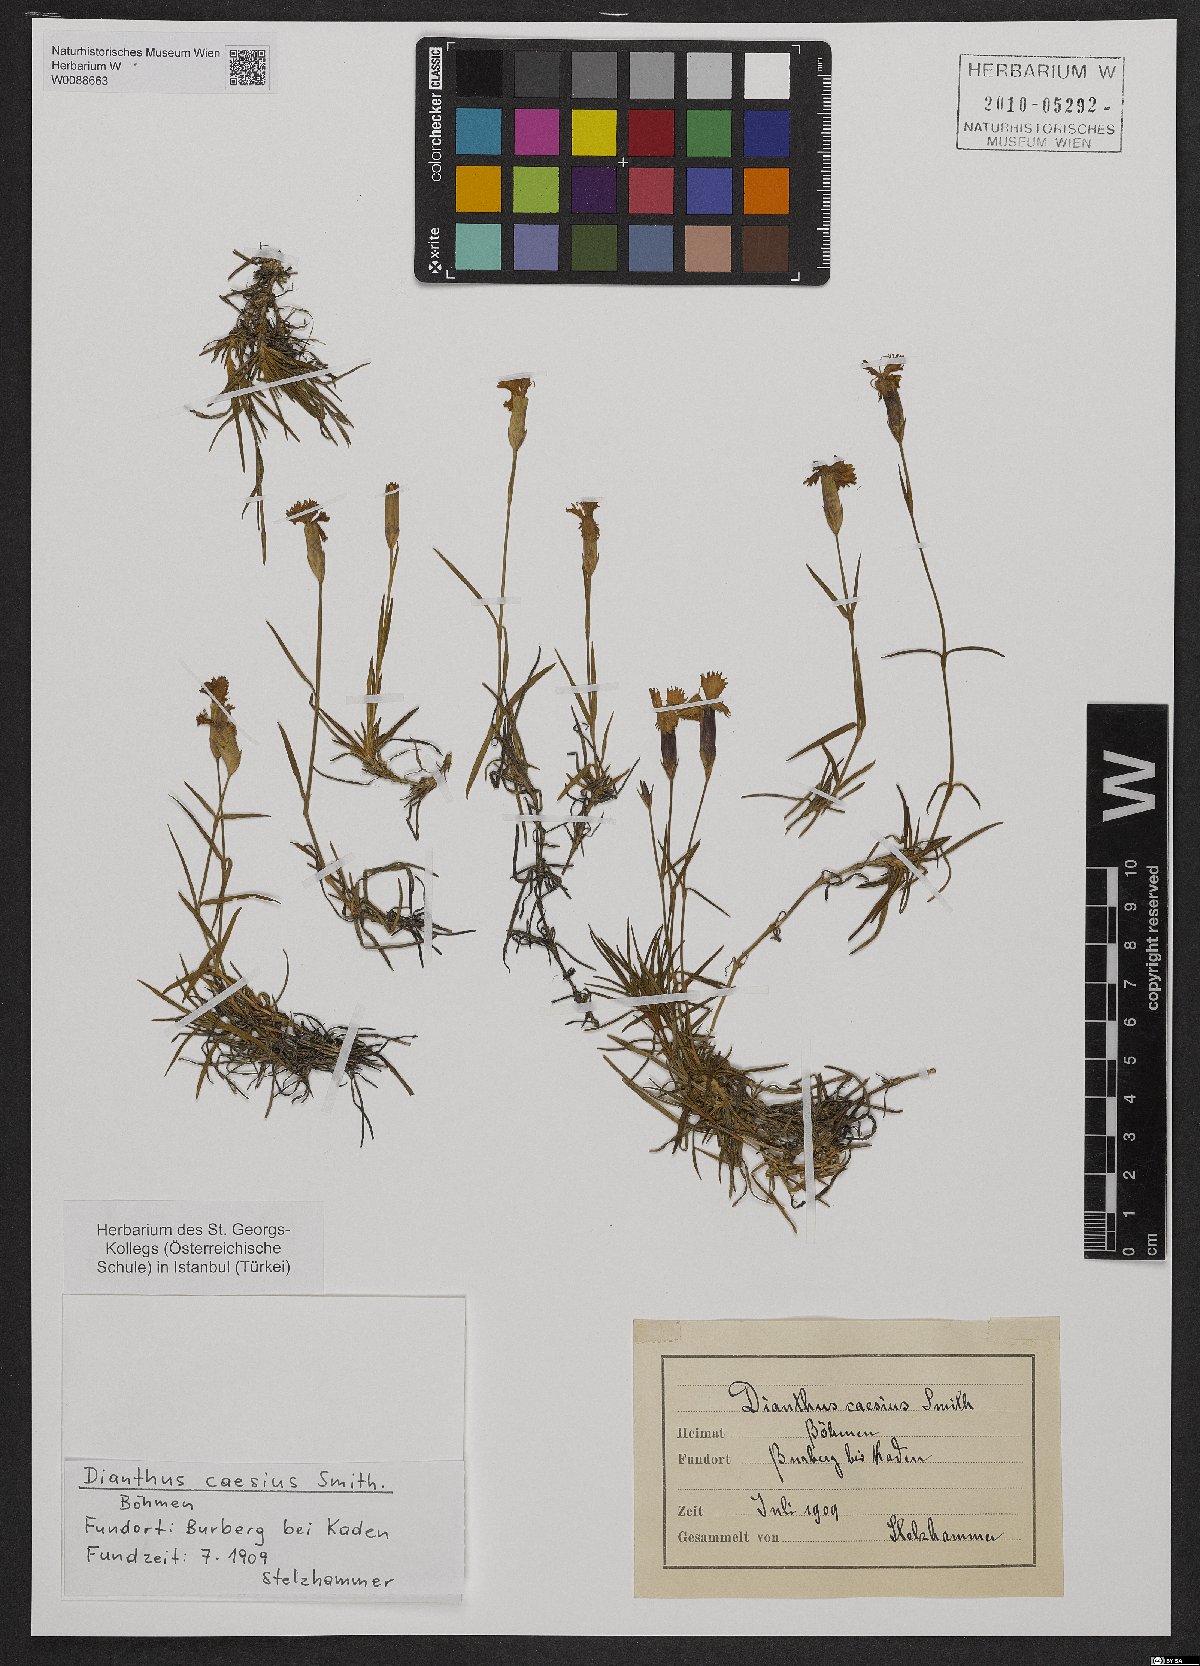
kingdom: Plantae
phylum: Tracheophyta
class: Magnoliopsida
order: Caryophyllales
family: Caryophyllaceae
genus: Dianthus
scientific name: Dianthus gratianopolitanus
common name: Cheddar pink
